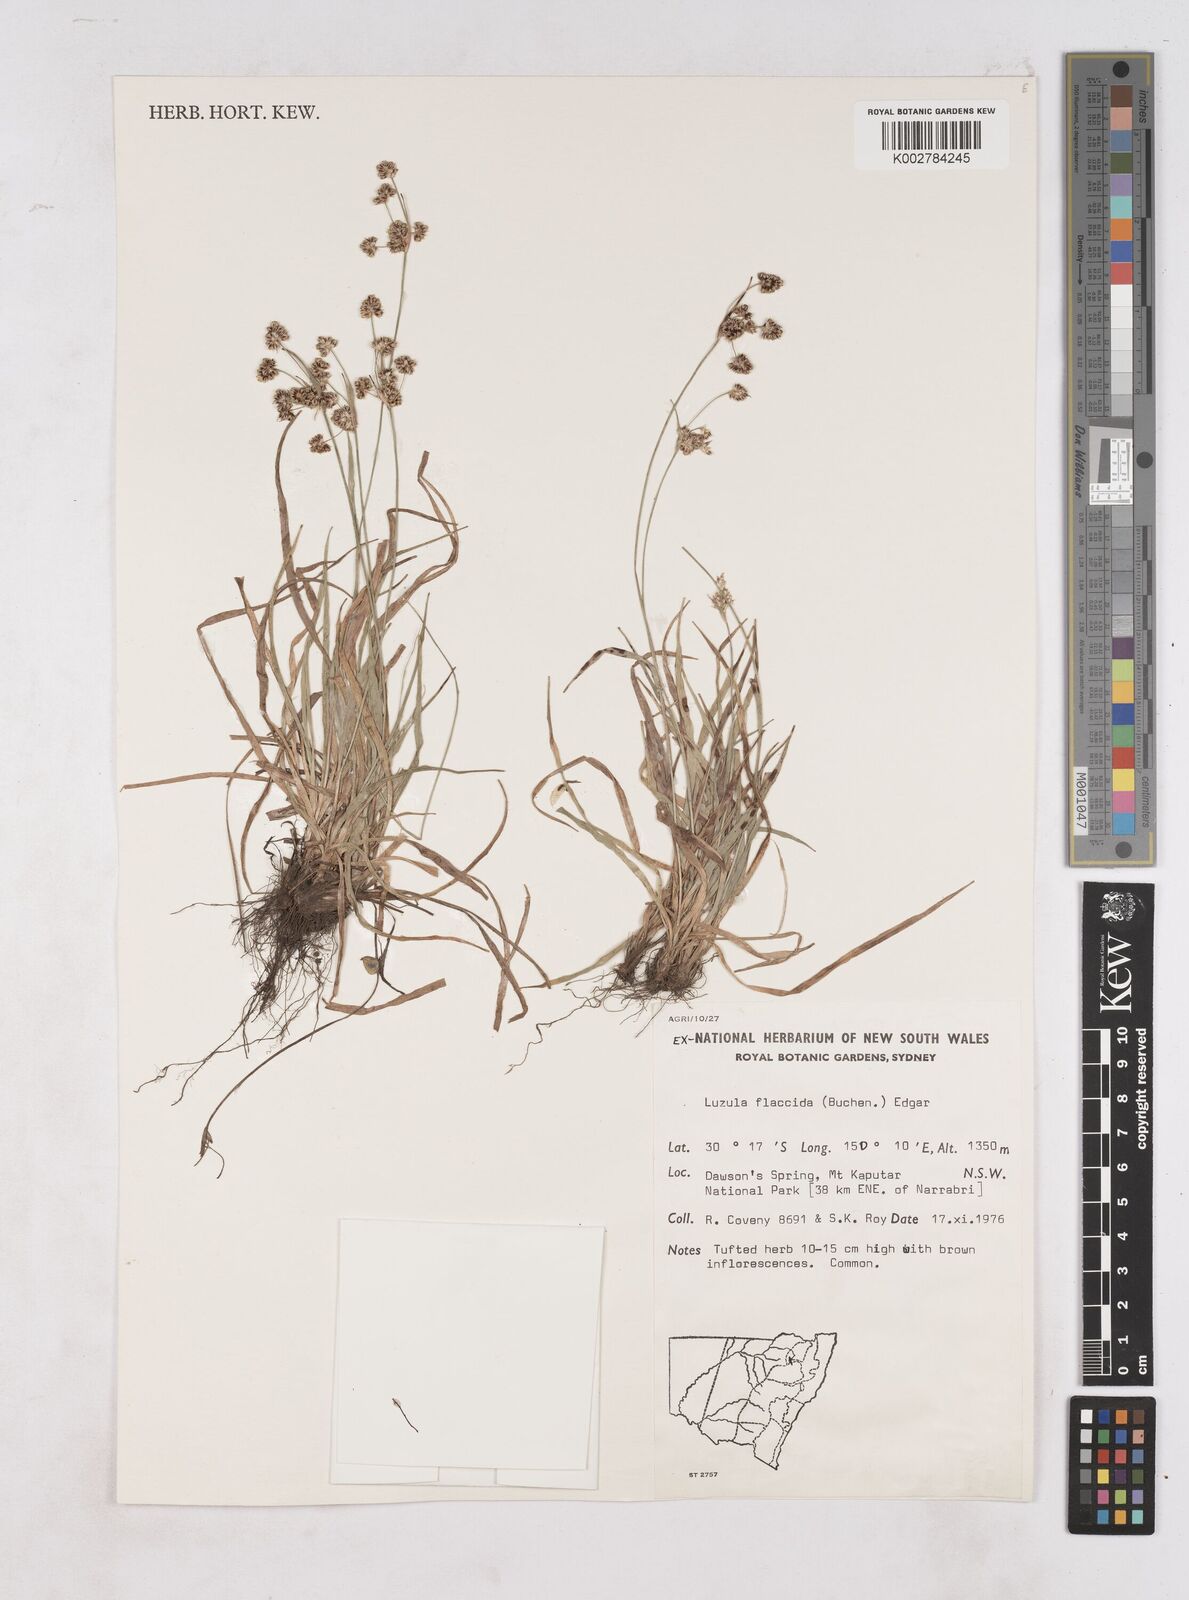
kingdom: Plantae
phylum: Tracheophyta
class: Liliopsida
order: Poales
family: Juncaceae
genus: Luzula
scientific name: Luzula flaccida
